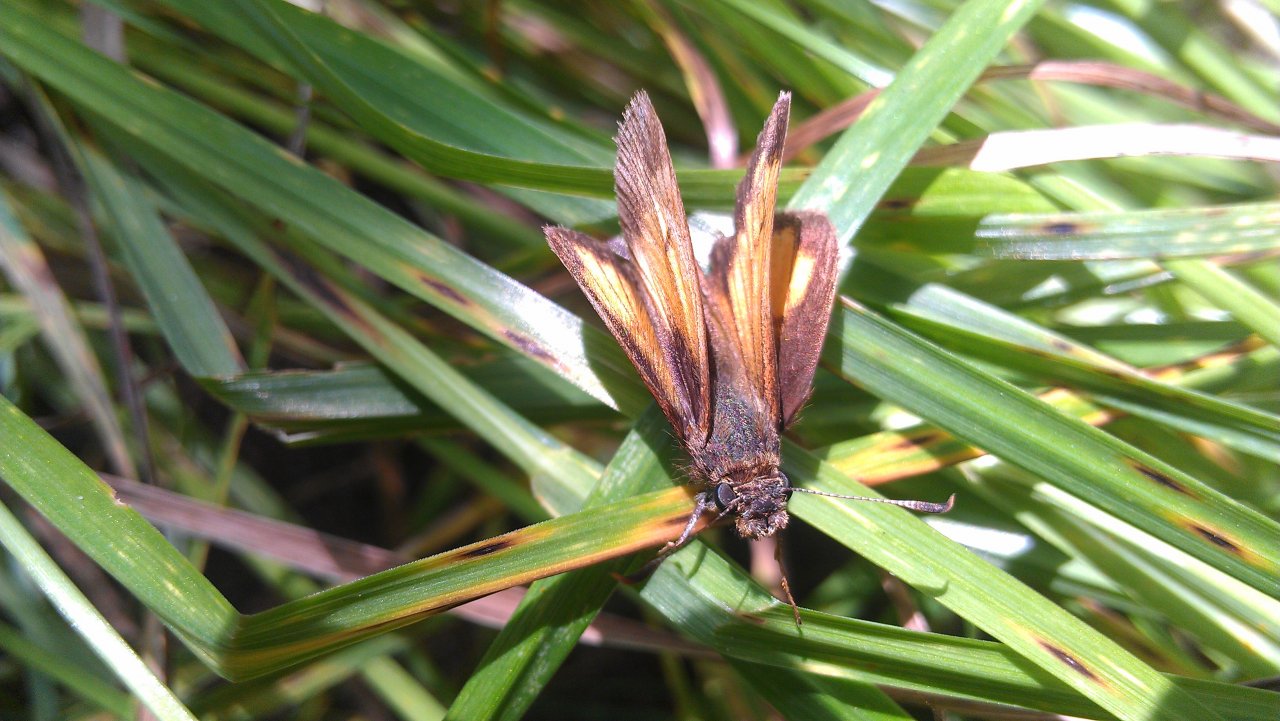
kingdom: Animalia
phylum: Arthropoda
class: Insecta
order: Lepidoptera
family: Hesperiidae
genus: Lon
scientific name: Lon hobomok
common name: Hobomok Skipper
